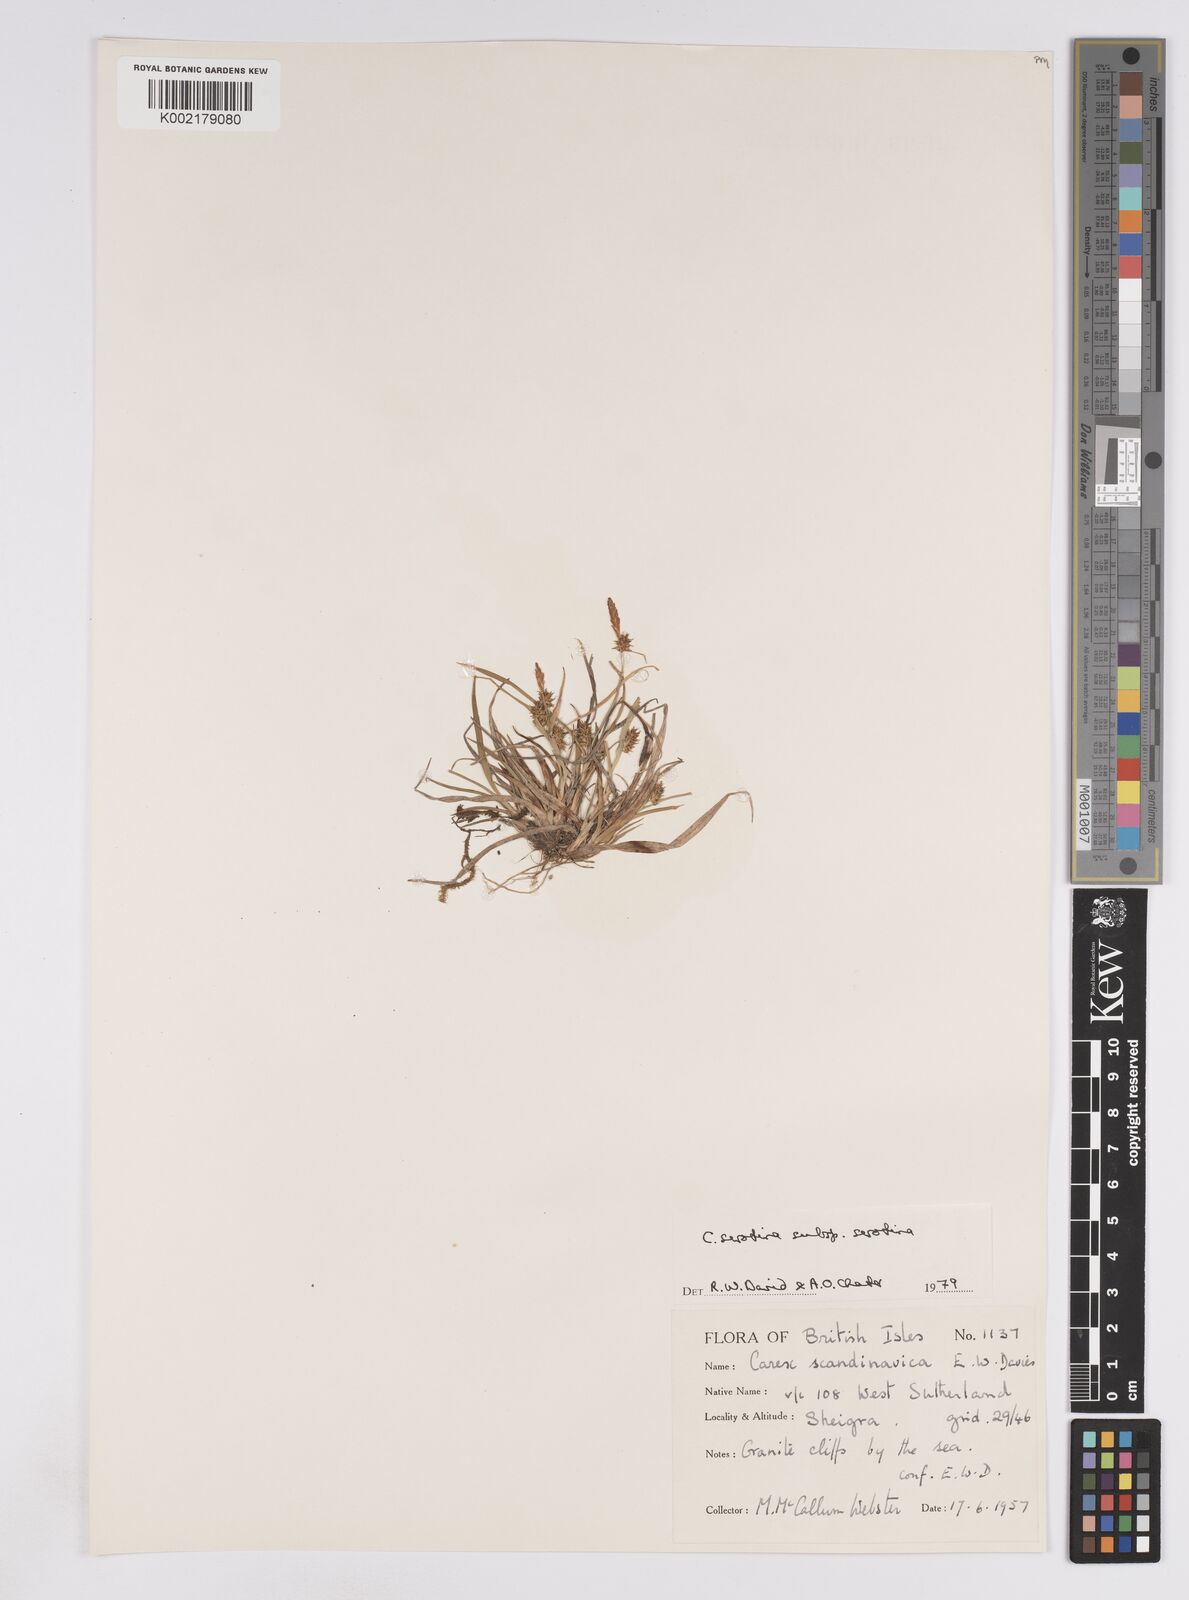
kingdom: Plantae
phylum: Tracheophyta
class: Liliopsida
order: Poales
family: Cyperaceae
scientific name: Cyperaceae
